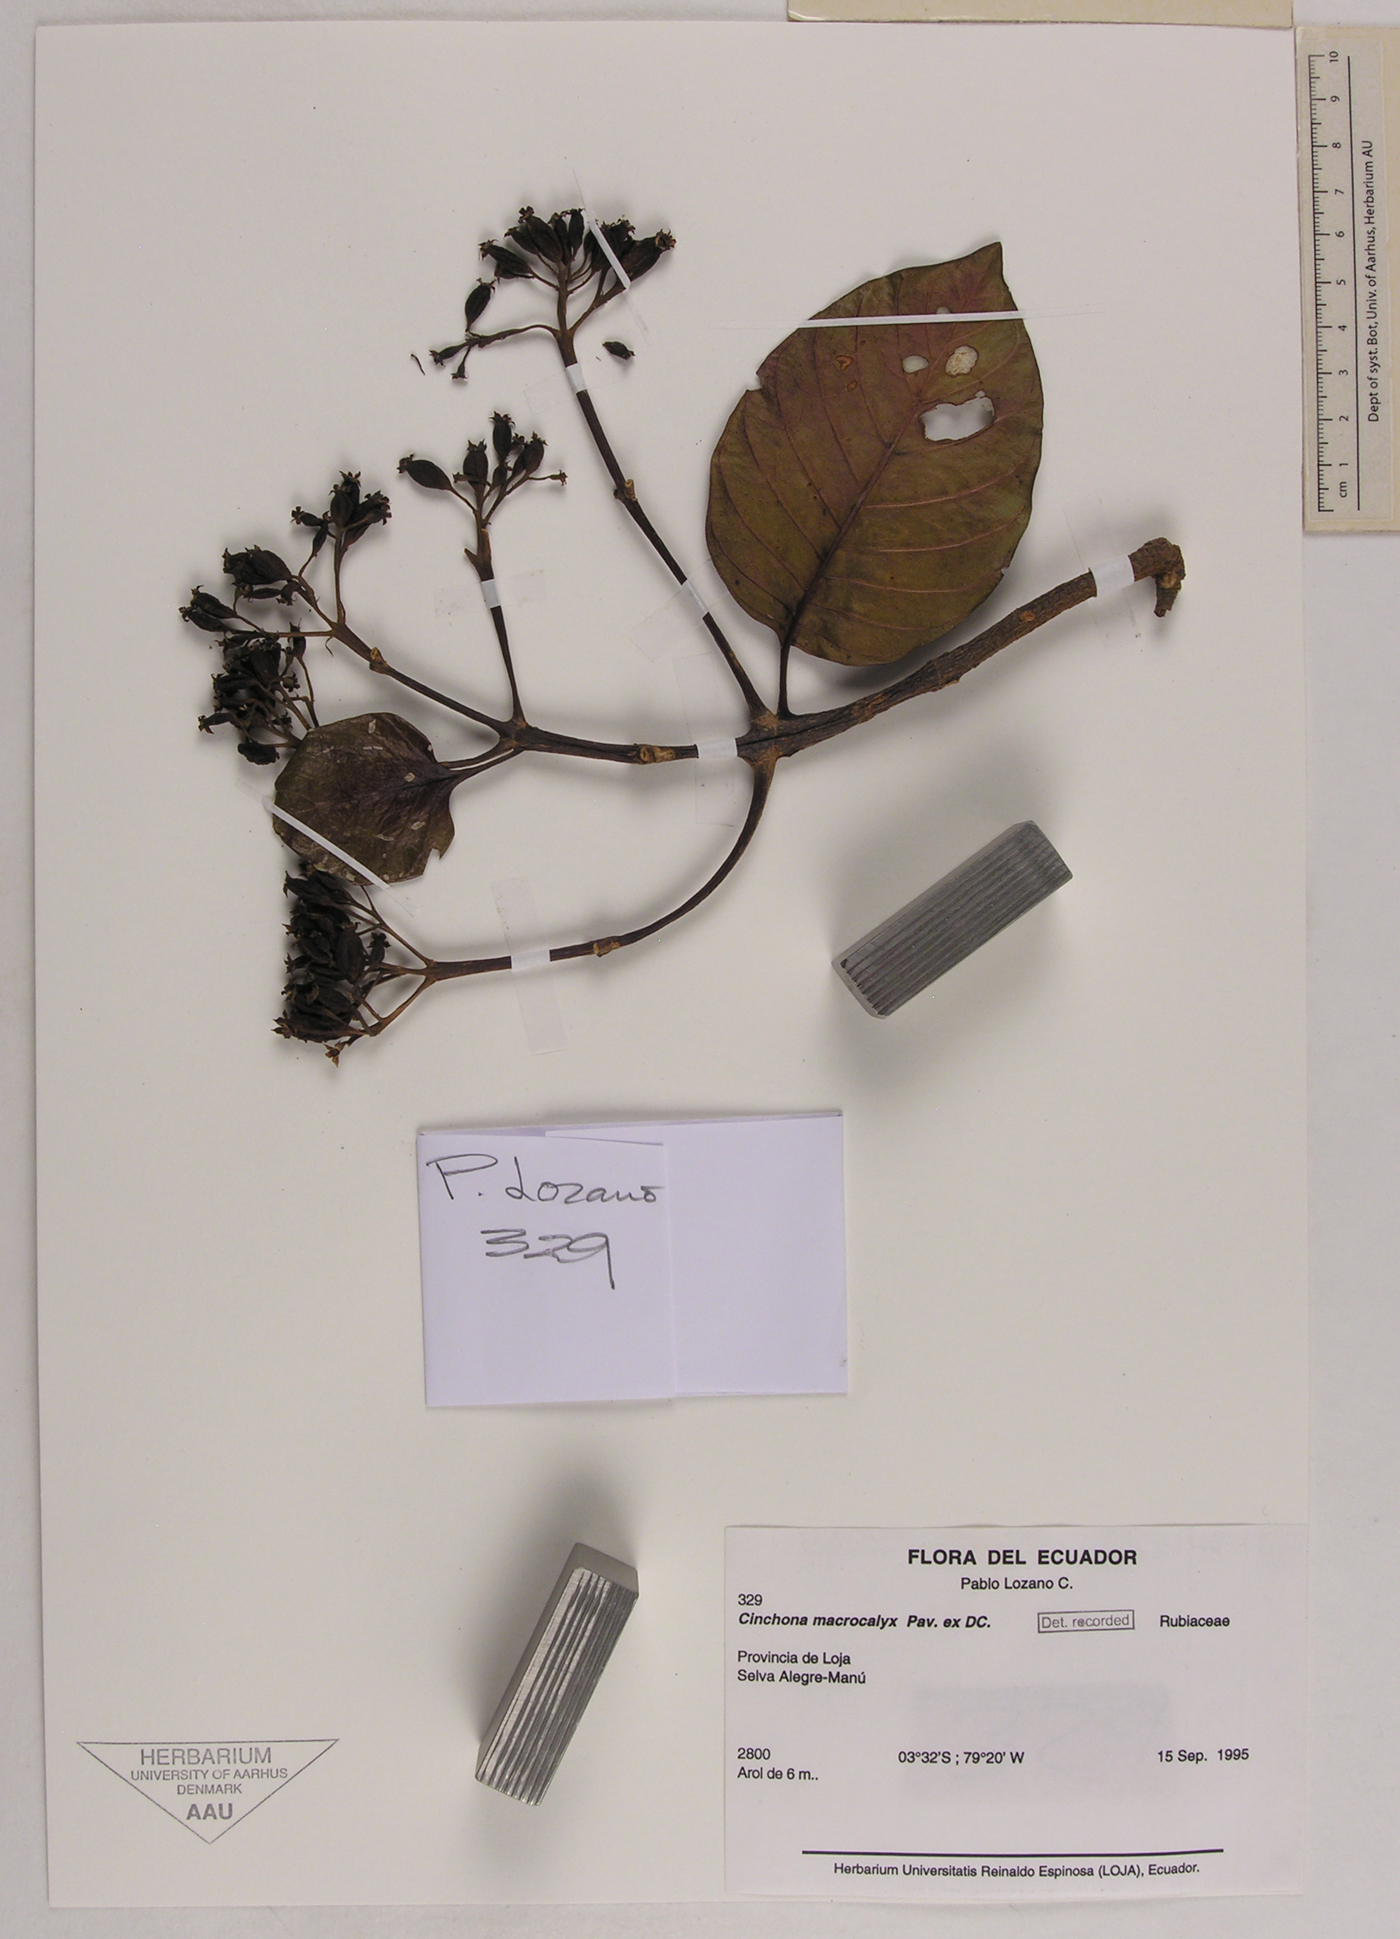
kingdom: Plantae
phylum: Tracheophyta
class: Magnoliopsida
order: Gentianales
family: Rubiaceae
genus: Cinchona
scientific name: Cinchona macrocalyx
